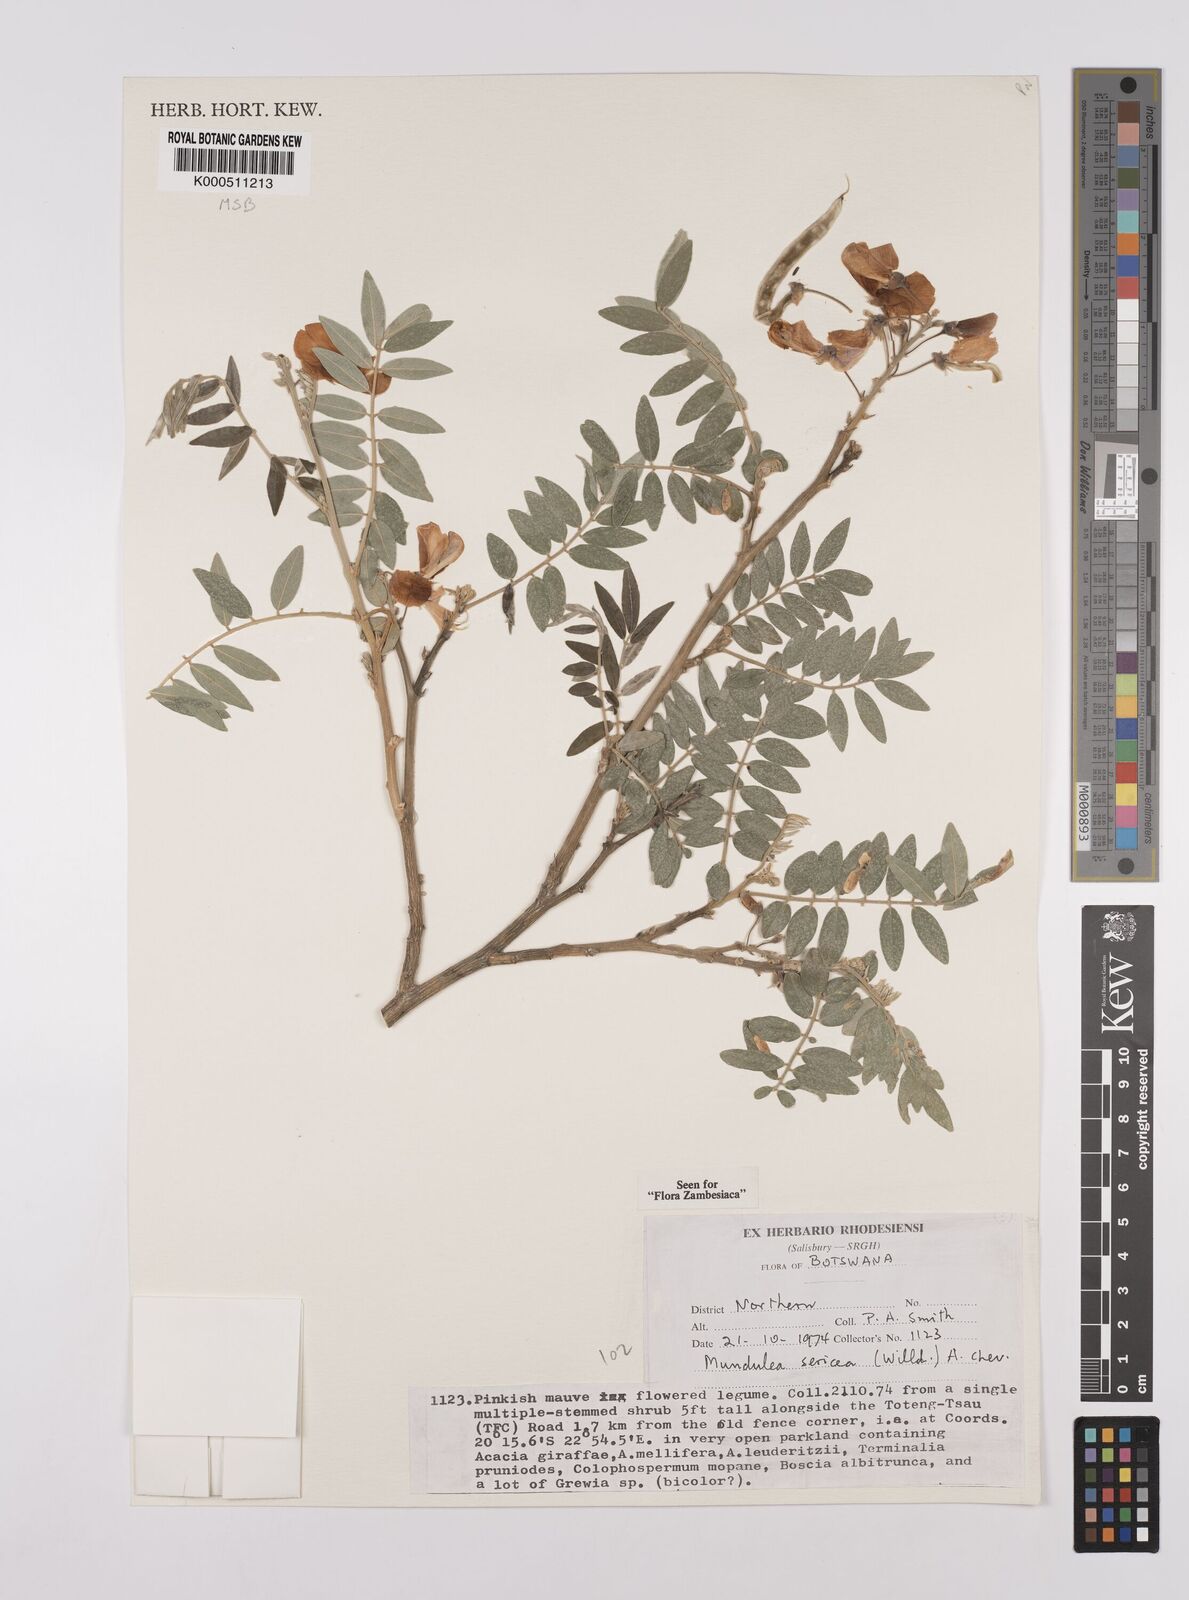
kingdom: Plantae
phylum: Tracheophyta
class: Magnoliopsida
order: Fabales
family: Fabaceae
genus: Mundulea
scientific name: Mundulea sericea
